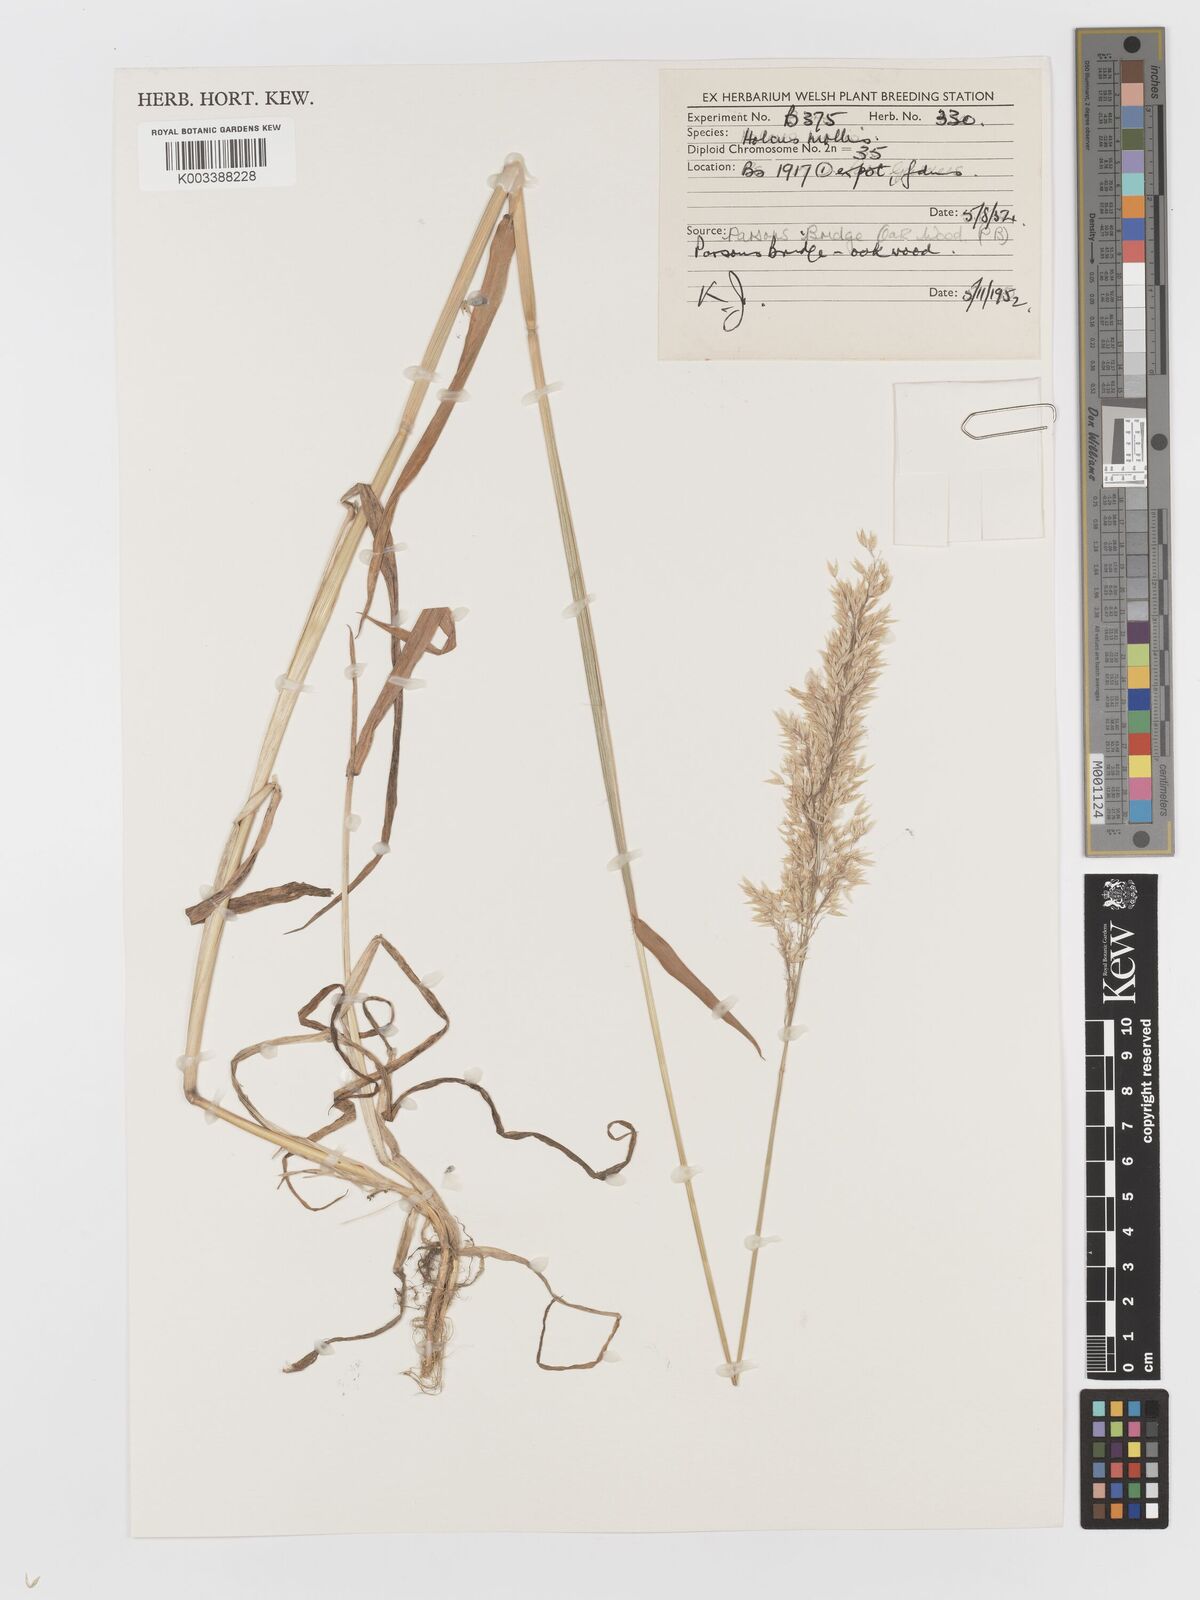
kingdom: Plantae
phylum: Tracheophyta
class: Liliopsida
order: Poales
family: Poaceae
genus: Holcus
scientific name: Holcus hierrensis
